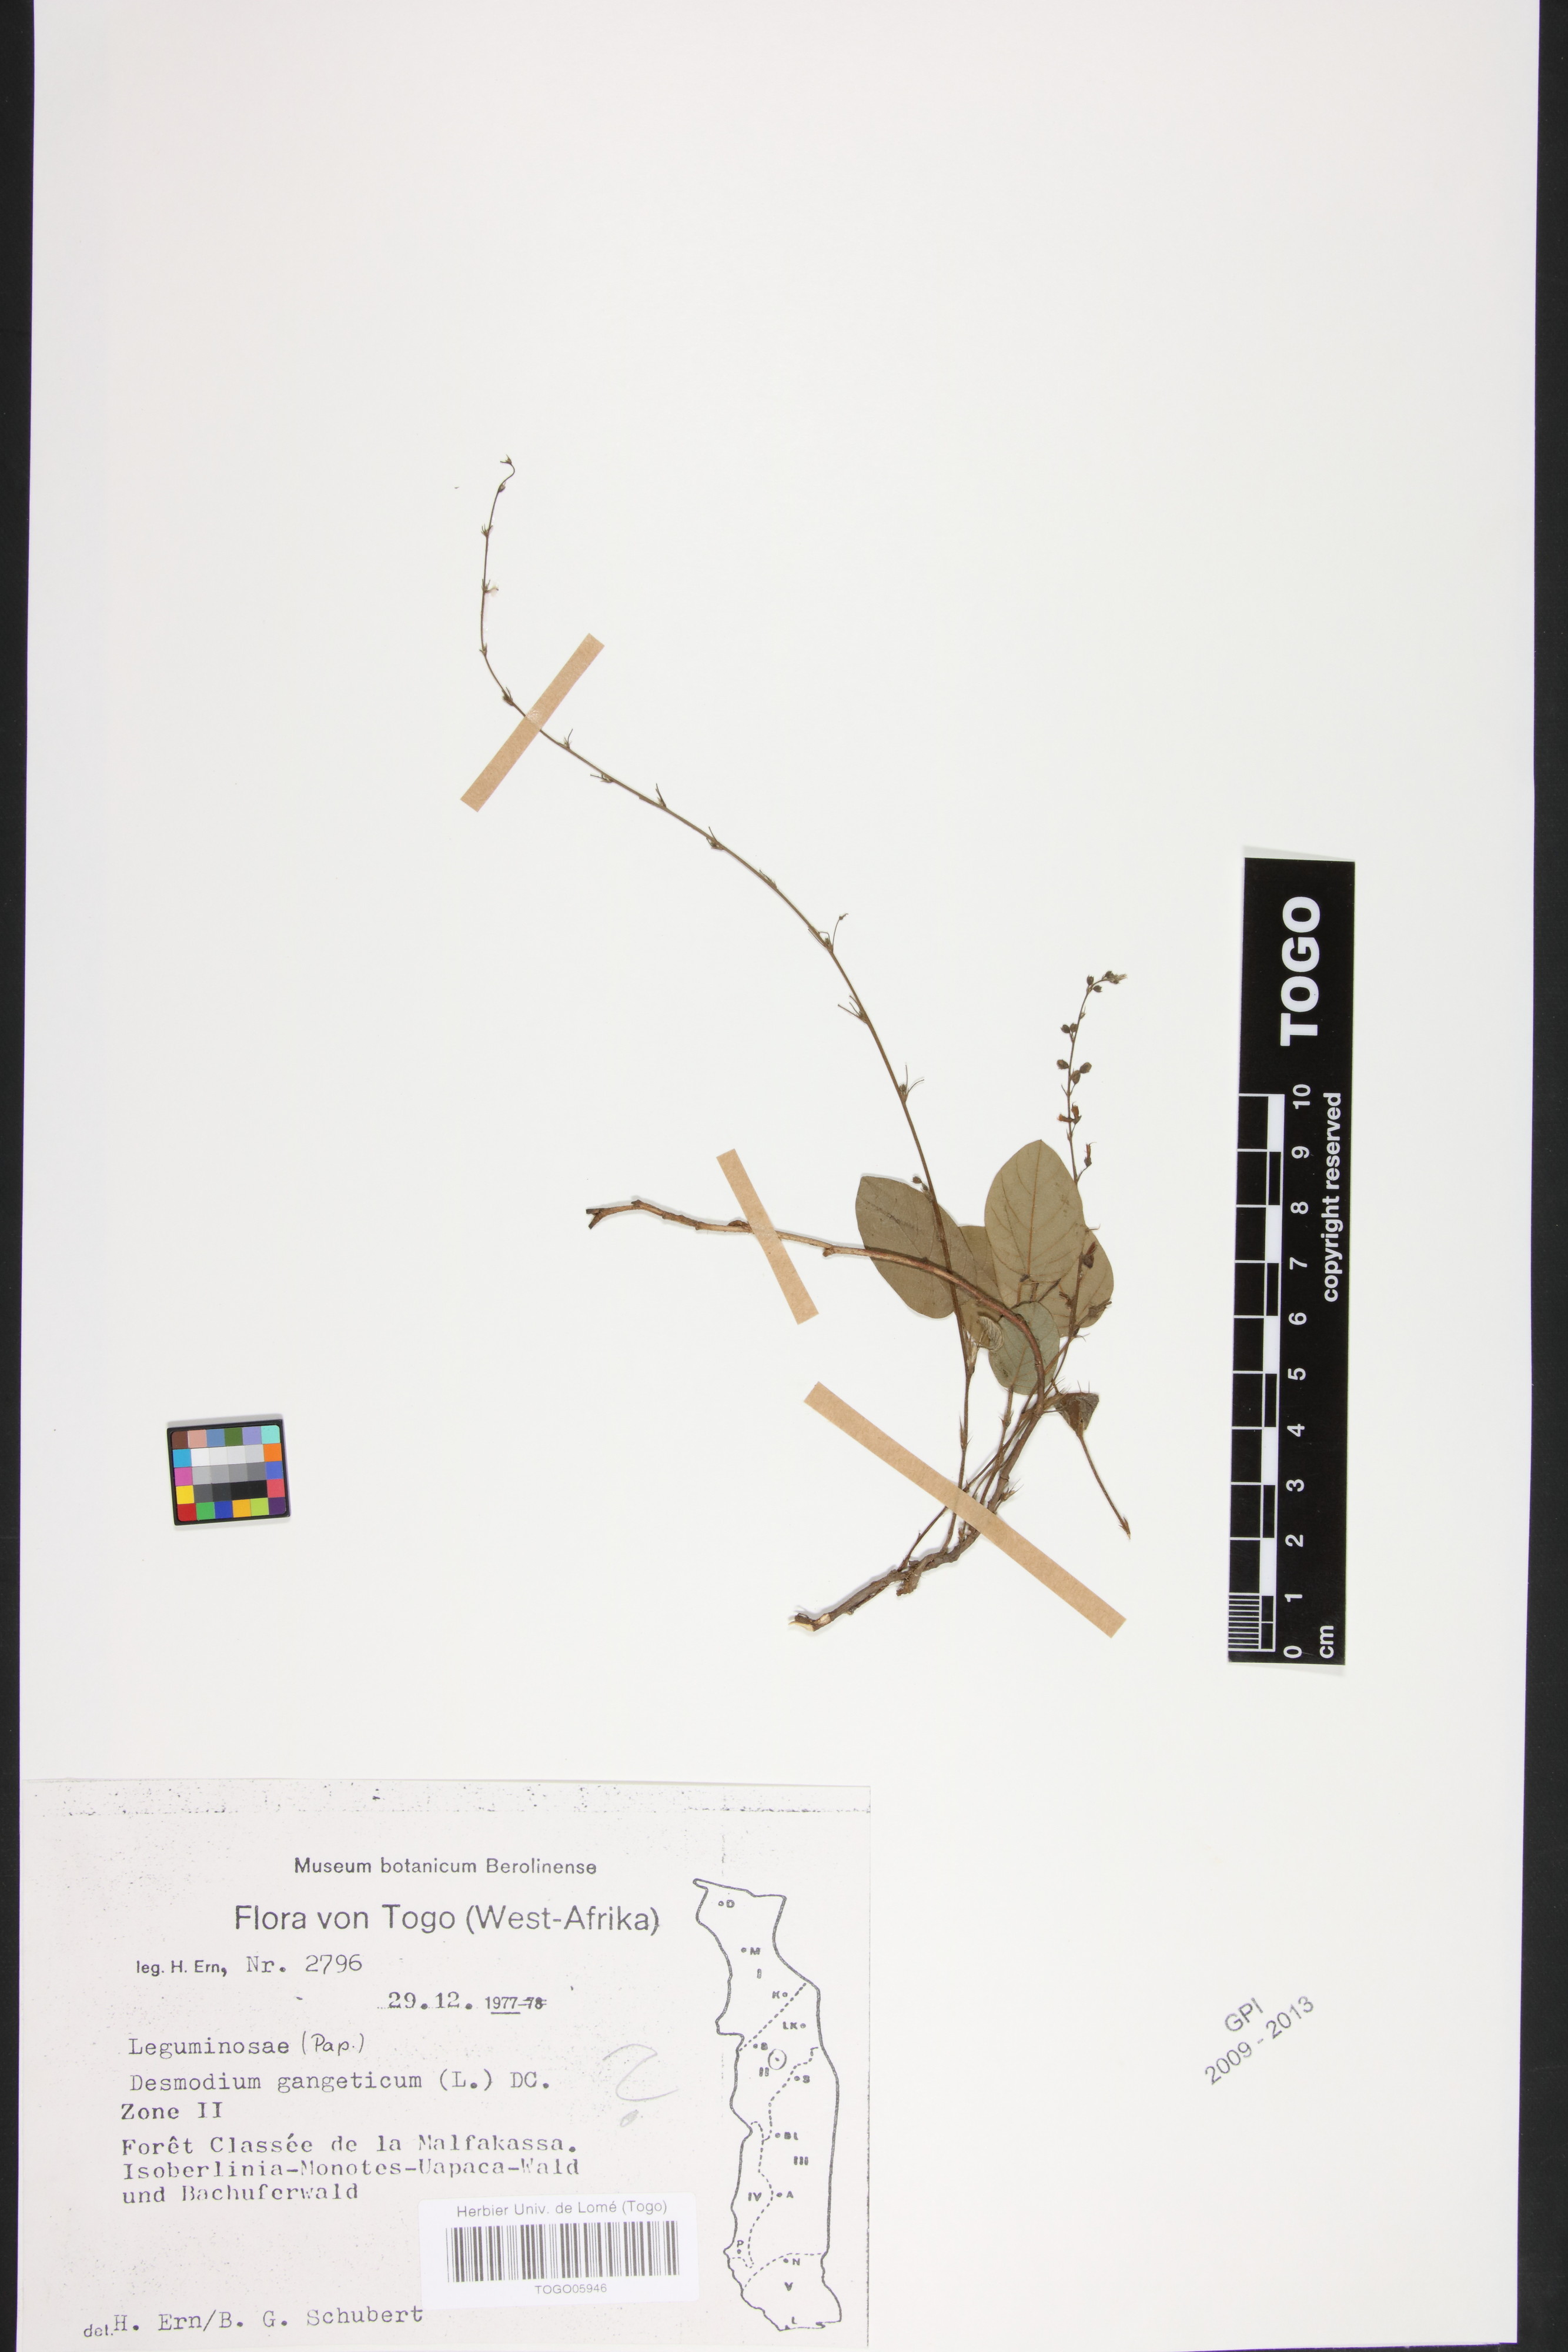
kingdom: Plantae
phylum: Tracheophyta
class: Magnoliopsida
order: Fabales
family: Fabaceae
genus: Desmodium
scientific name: Desmodium gangeticum
